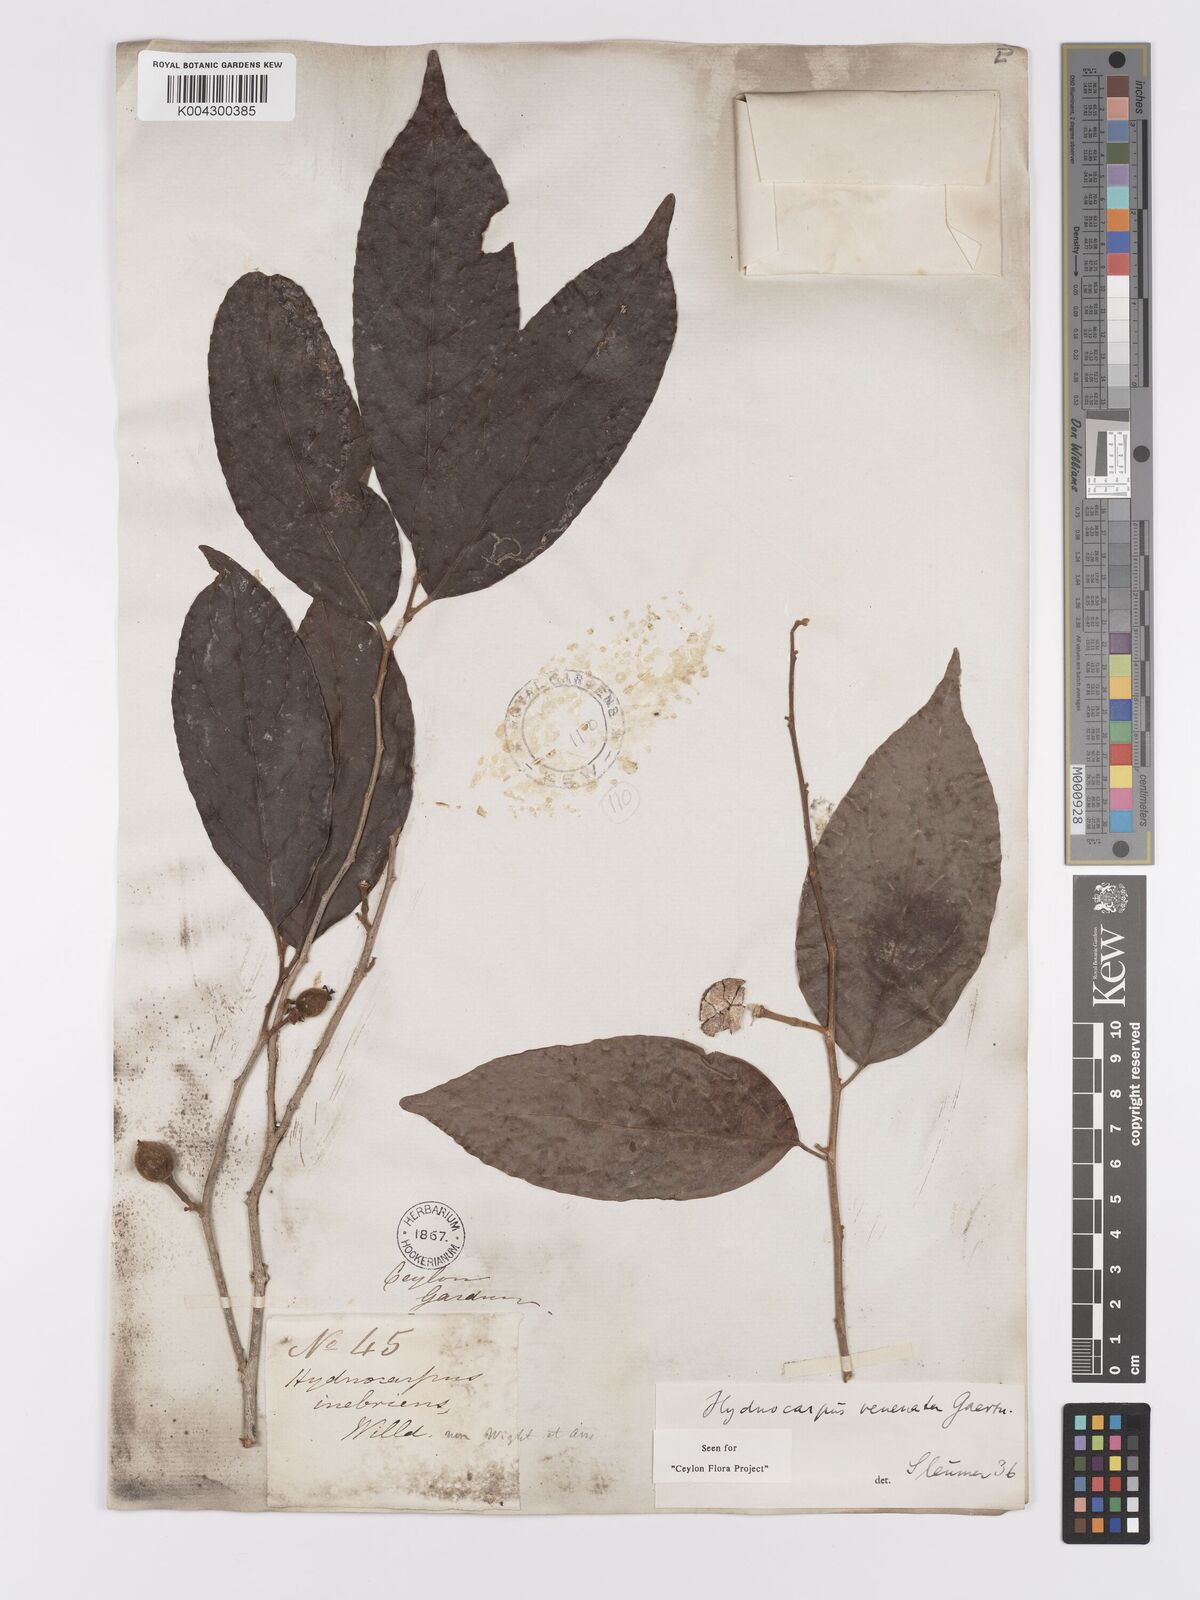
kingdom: Plantae
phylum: Tracheophyta
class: Magnoliopsida
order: Malpighiales
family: Achariaceae
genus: Hydnocarpus
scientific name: Hydnocarpus venenatus
